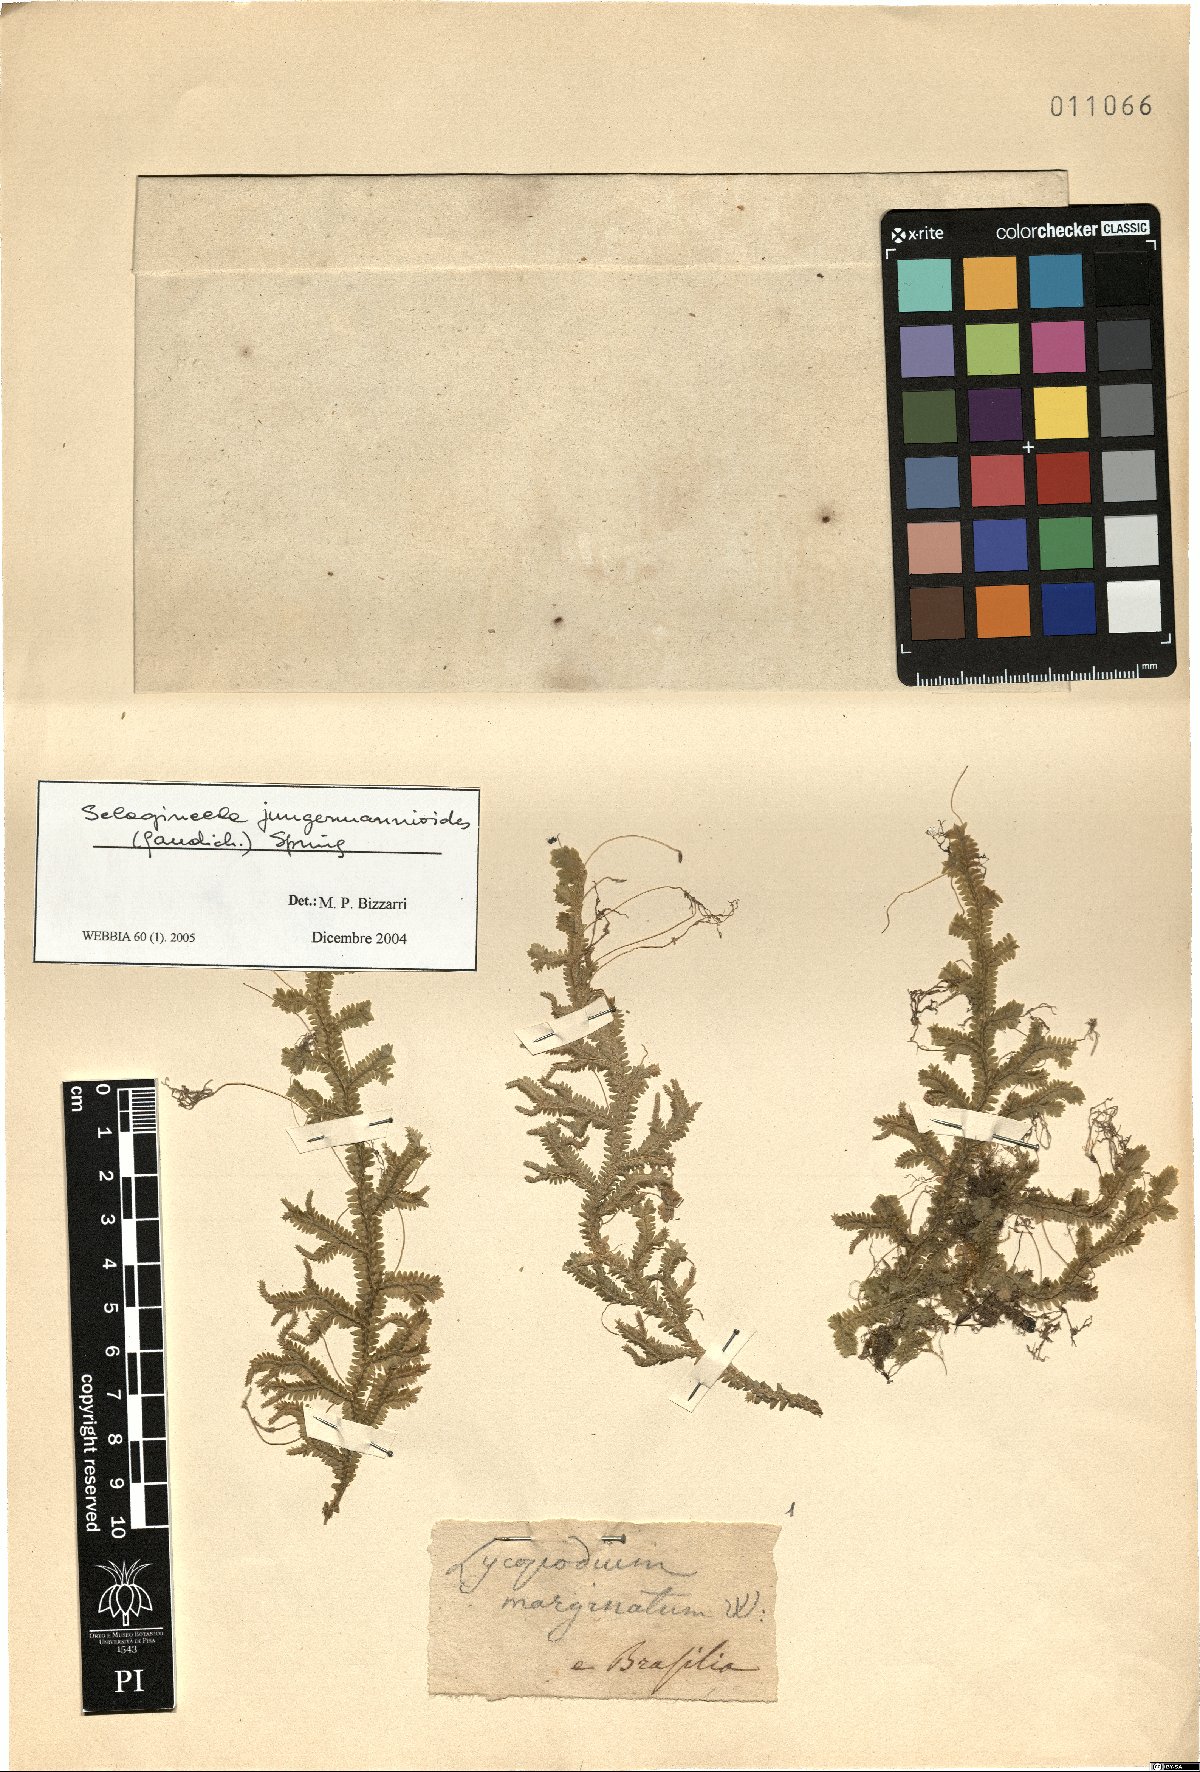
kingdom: Plantae
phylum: Tracheophyta
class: Lycopodiopsida
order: Selaginellales
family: Selaginellaceae
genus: Selaginella
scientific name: Selaginella jungermannioides
